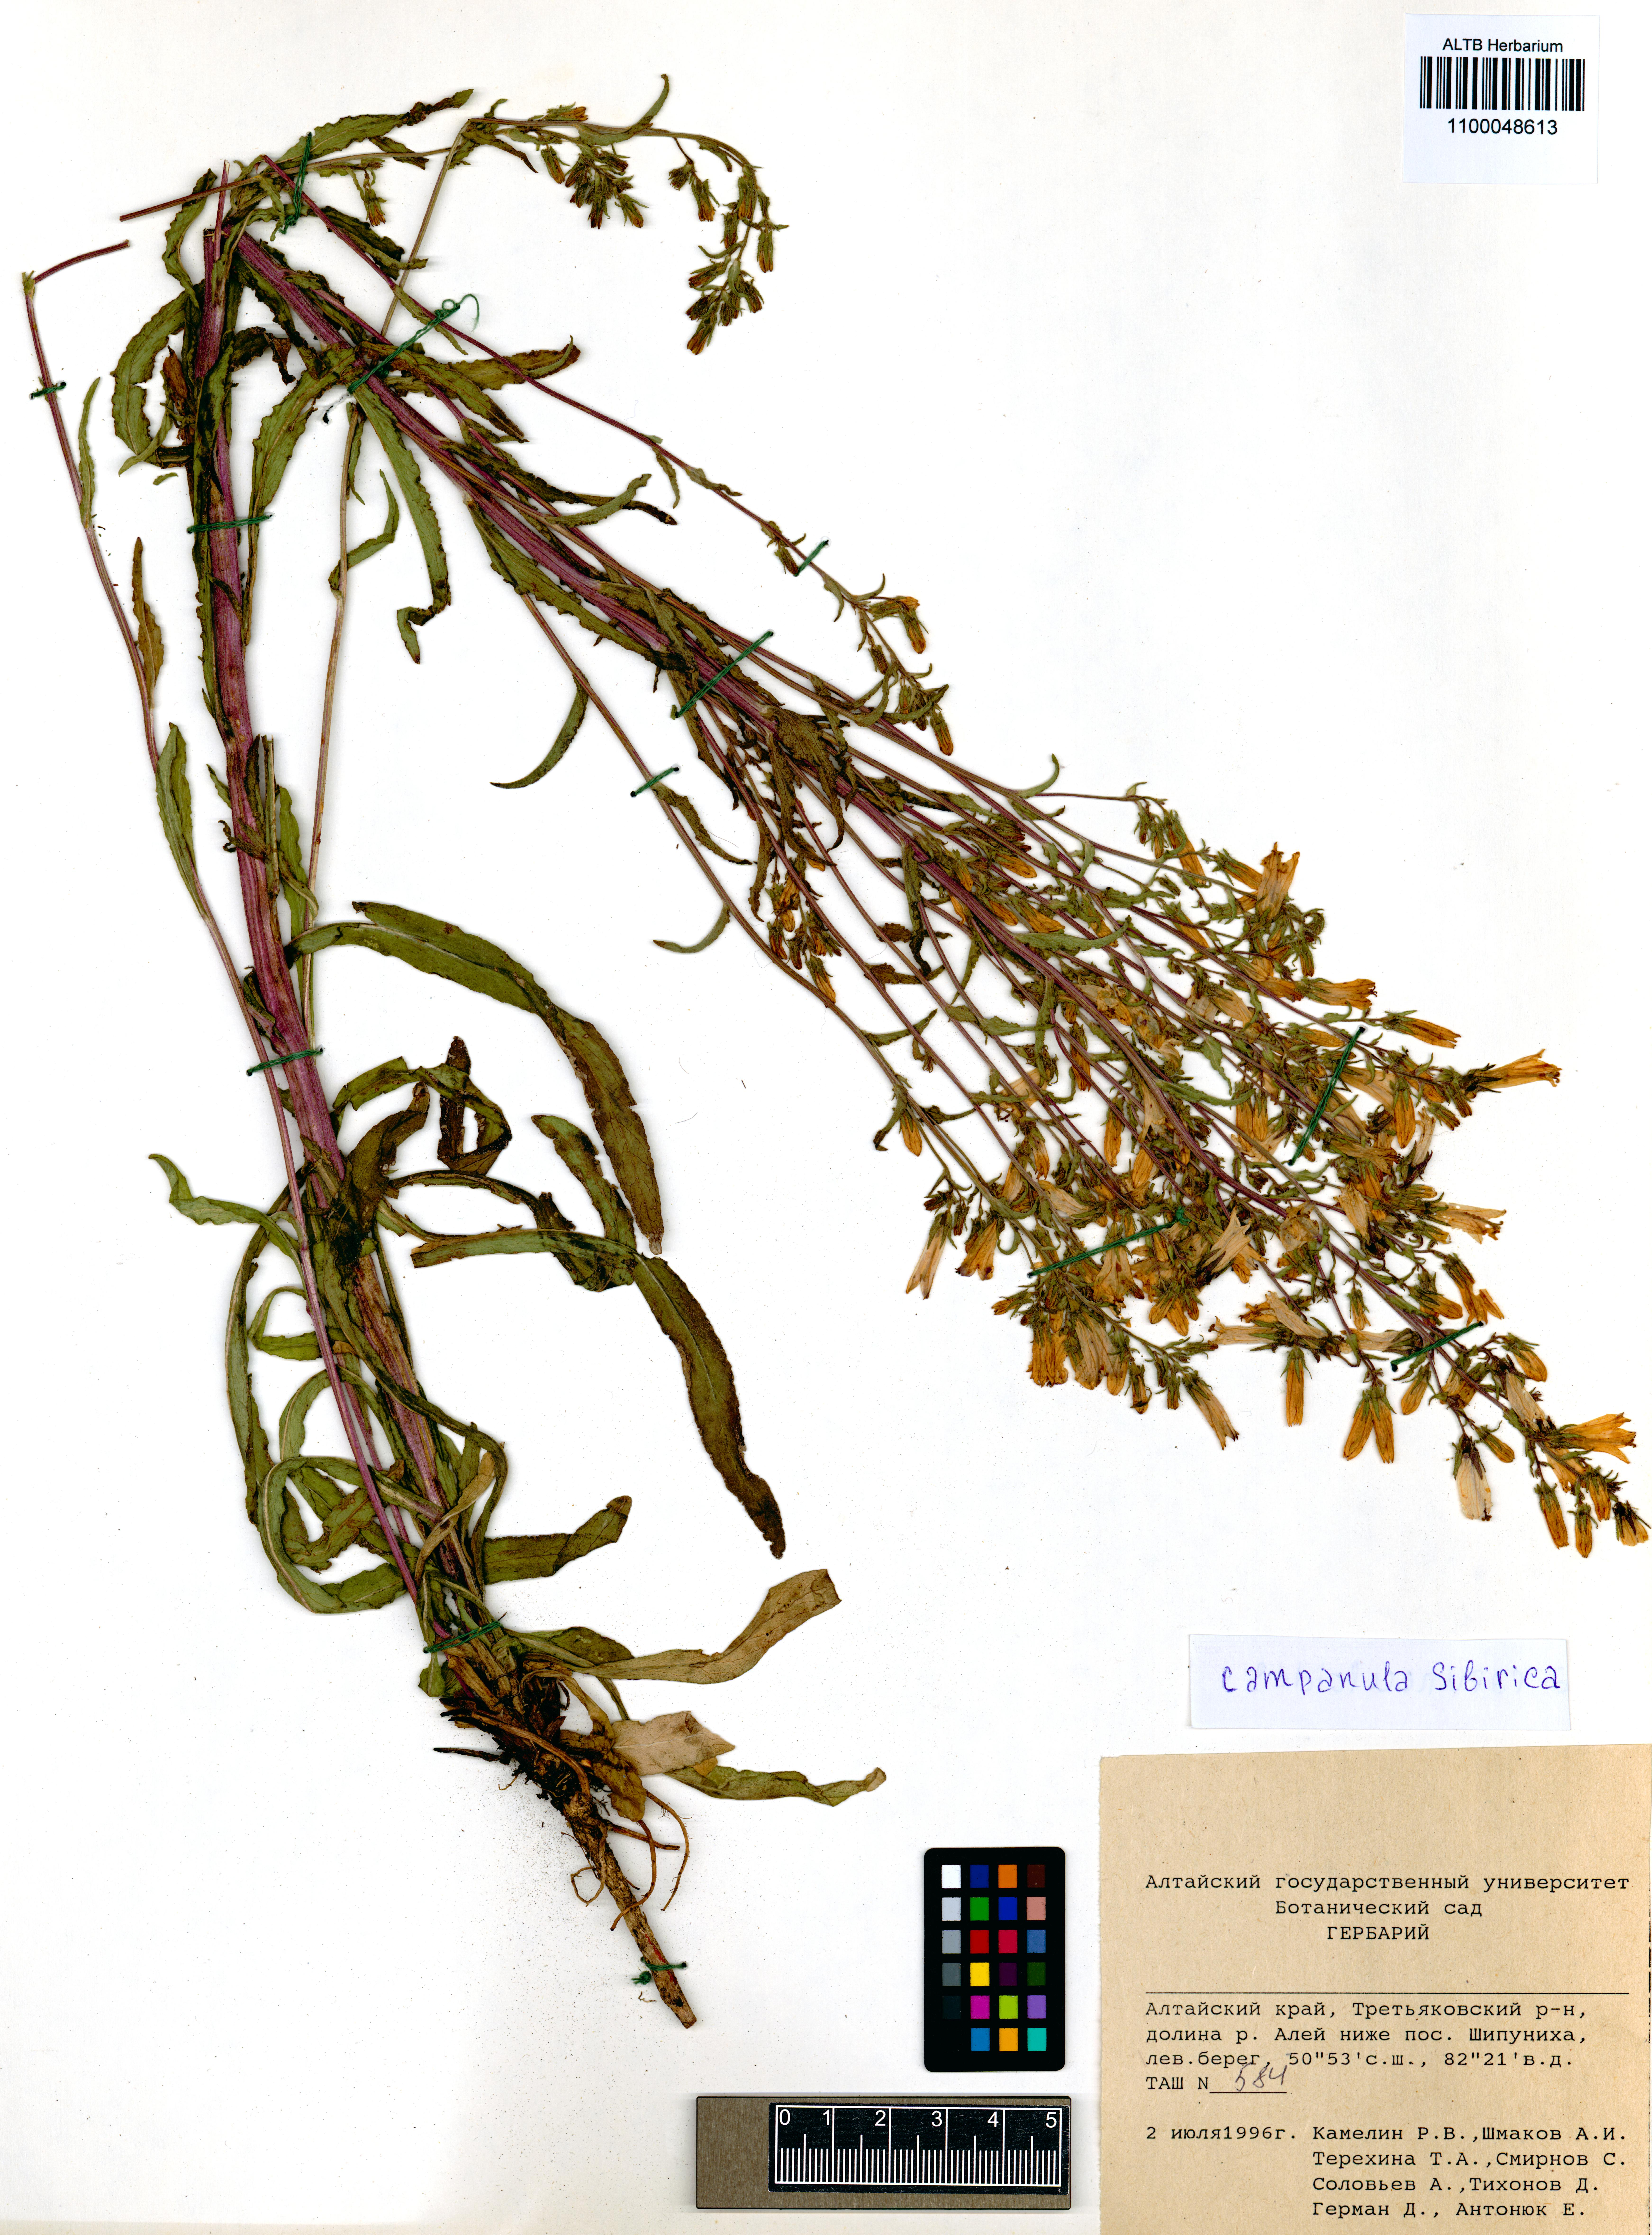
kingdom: Plantae
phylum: Tracheophyta
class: Magnoliopsida
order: Asterales
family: Campanulaceae
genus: Campanula
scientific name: Campanula sibirica
